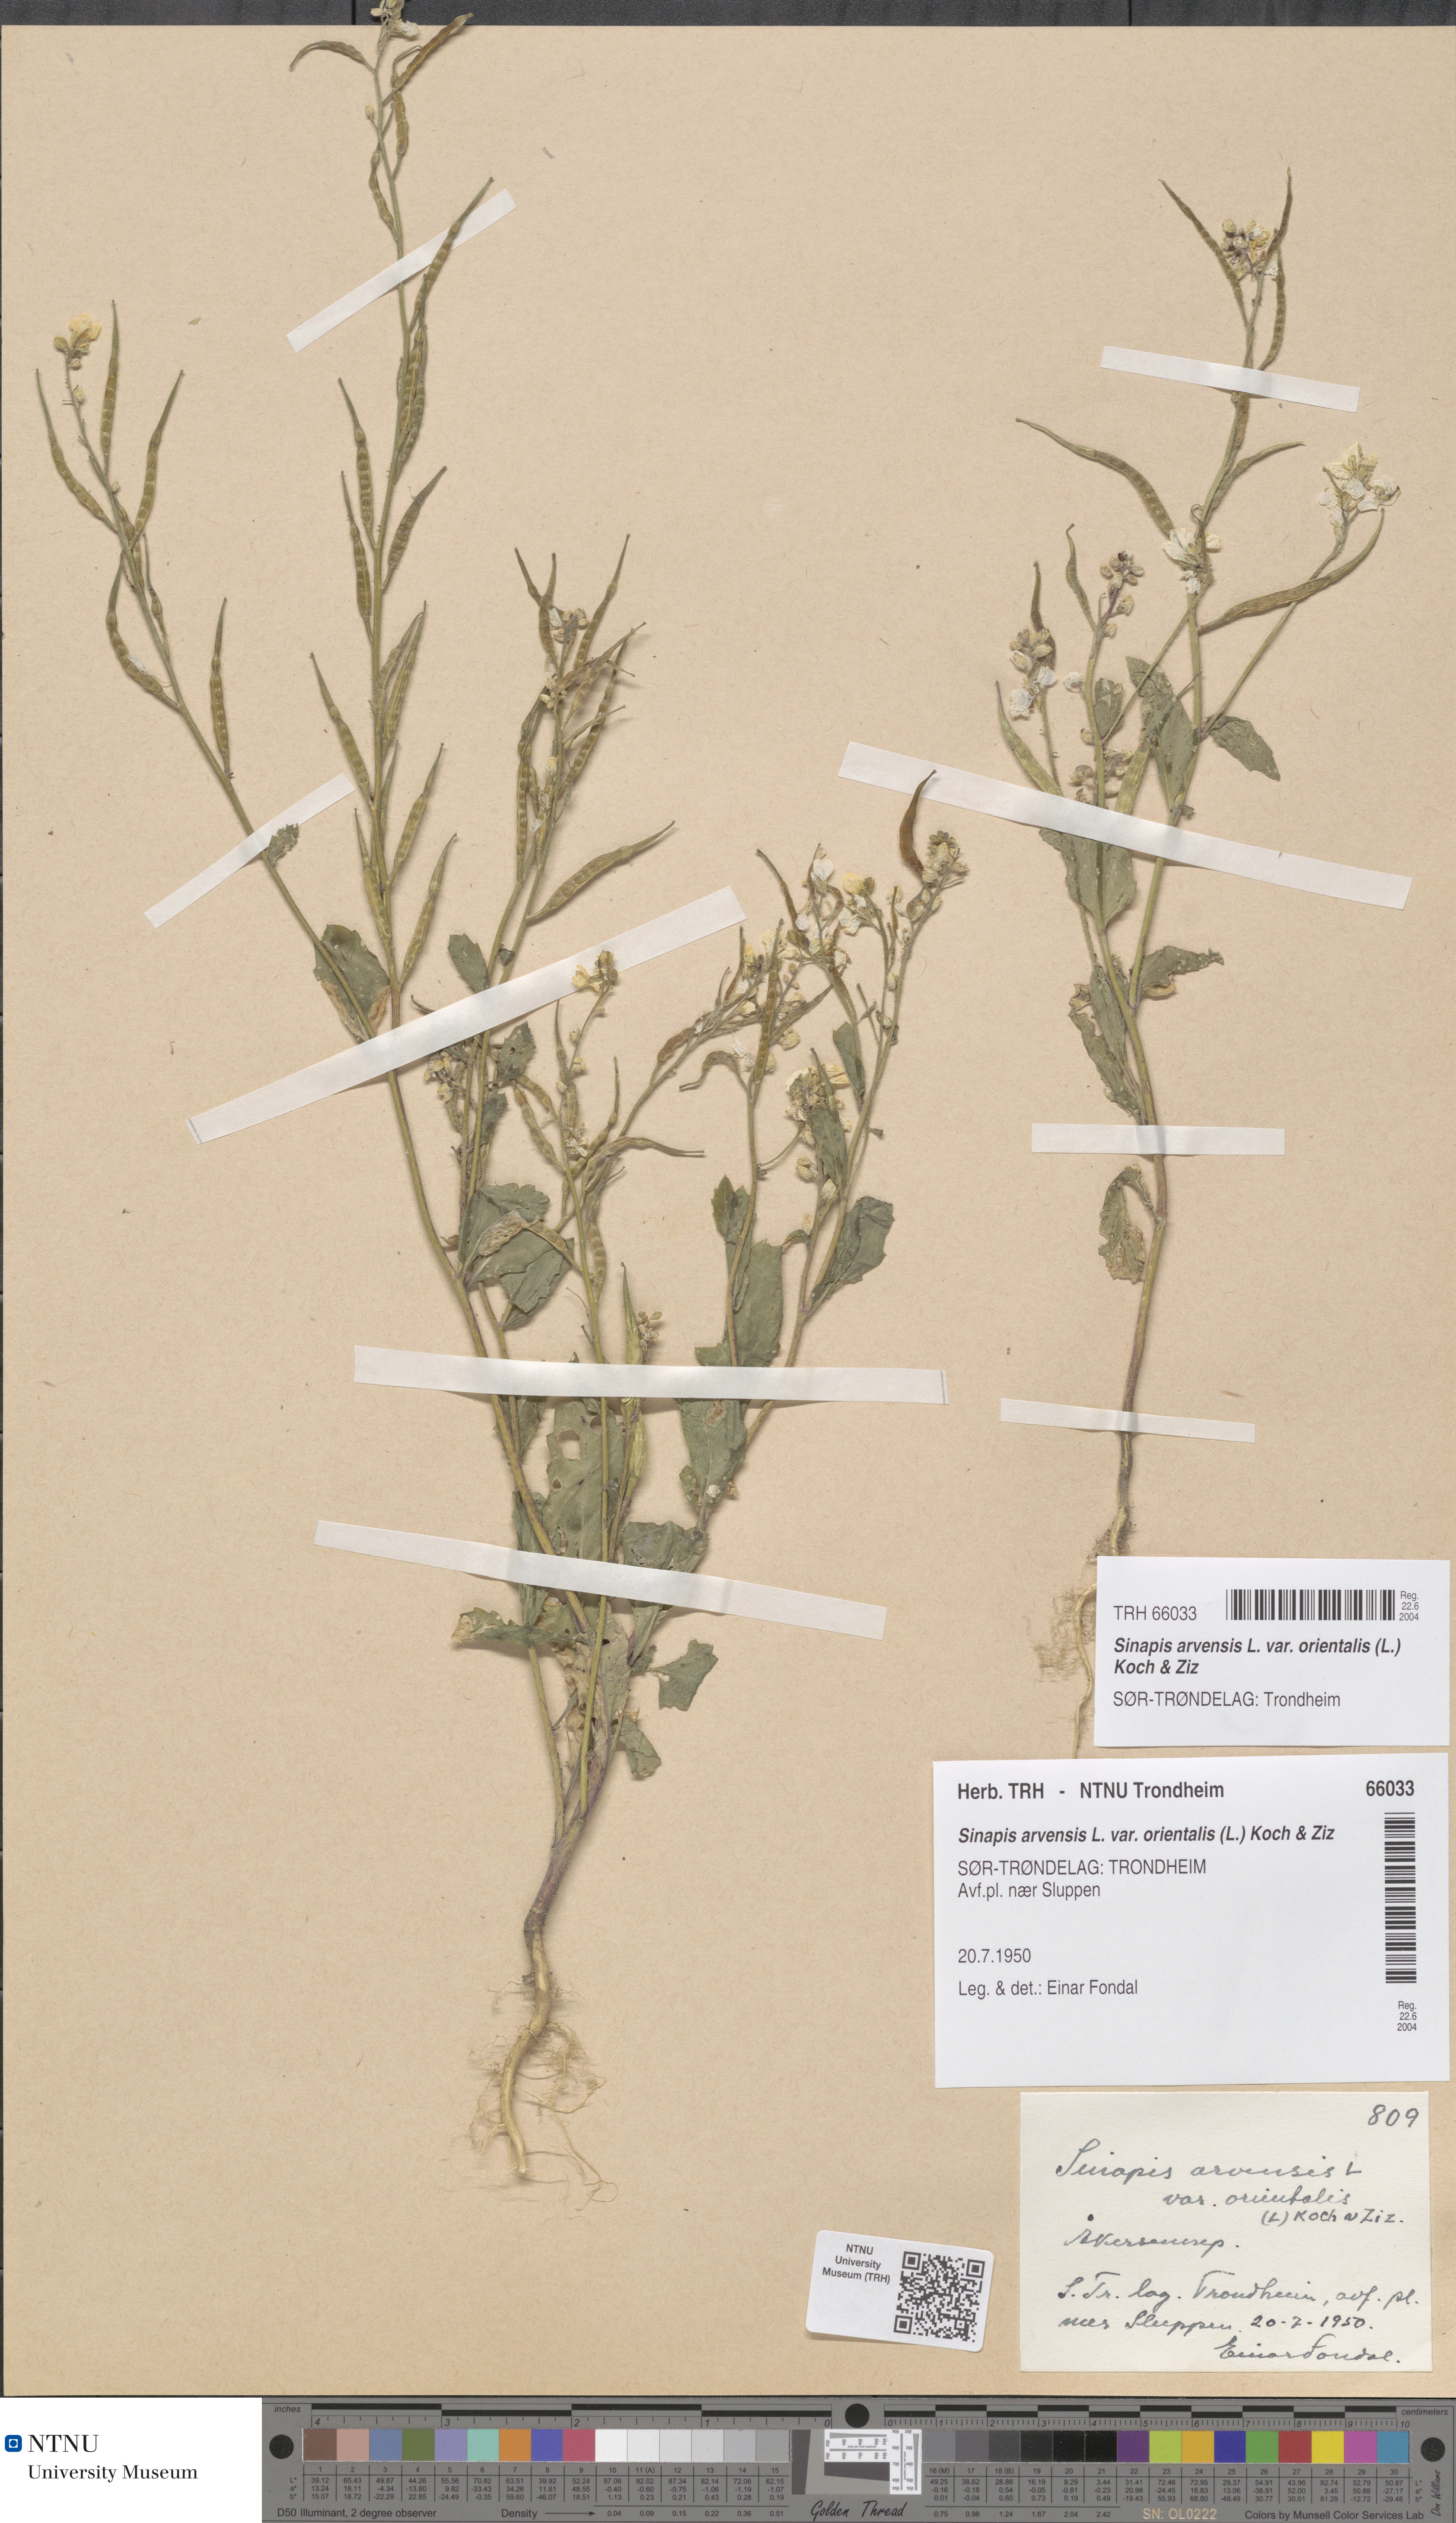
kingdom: Plantae
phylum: Tracheophyta
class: Magnoliopsida
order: Brassicales
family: Brassicaceae
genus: Sinapis
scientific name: Sinapis arvensis
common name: Charlock
